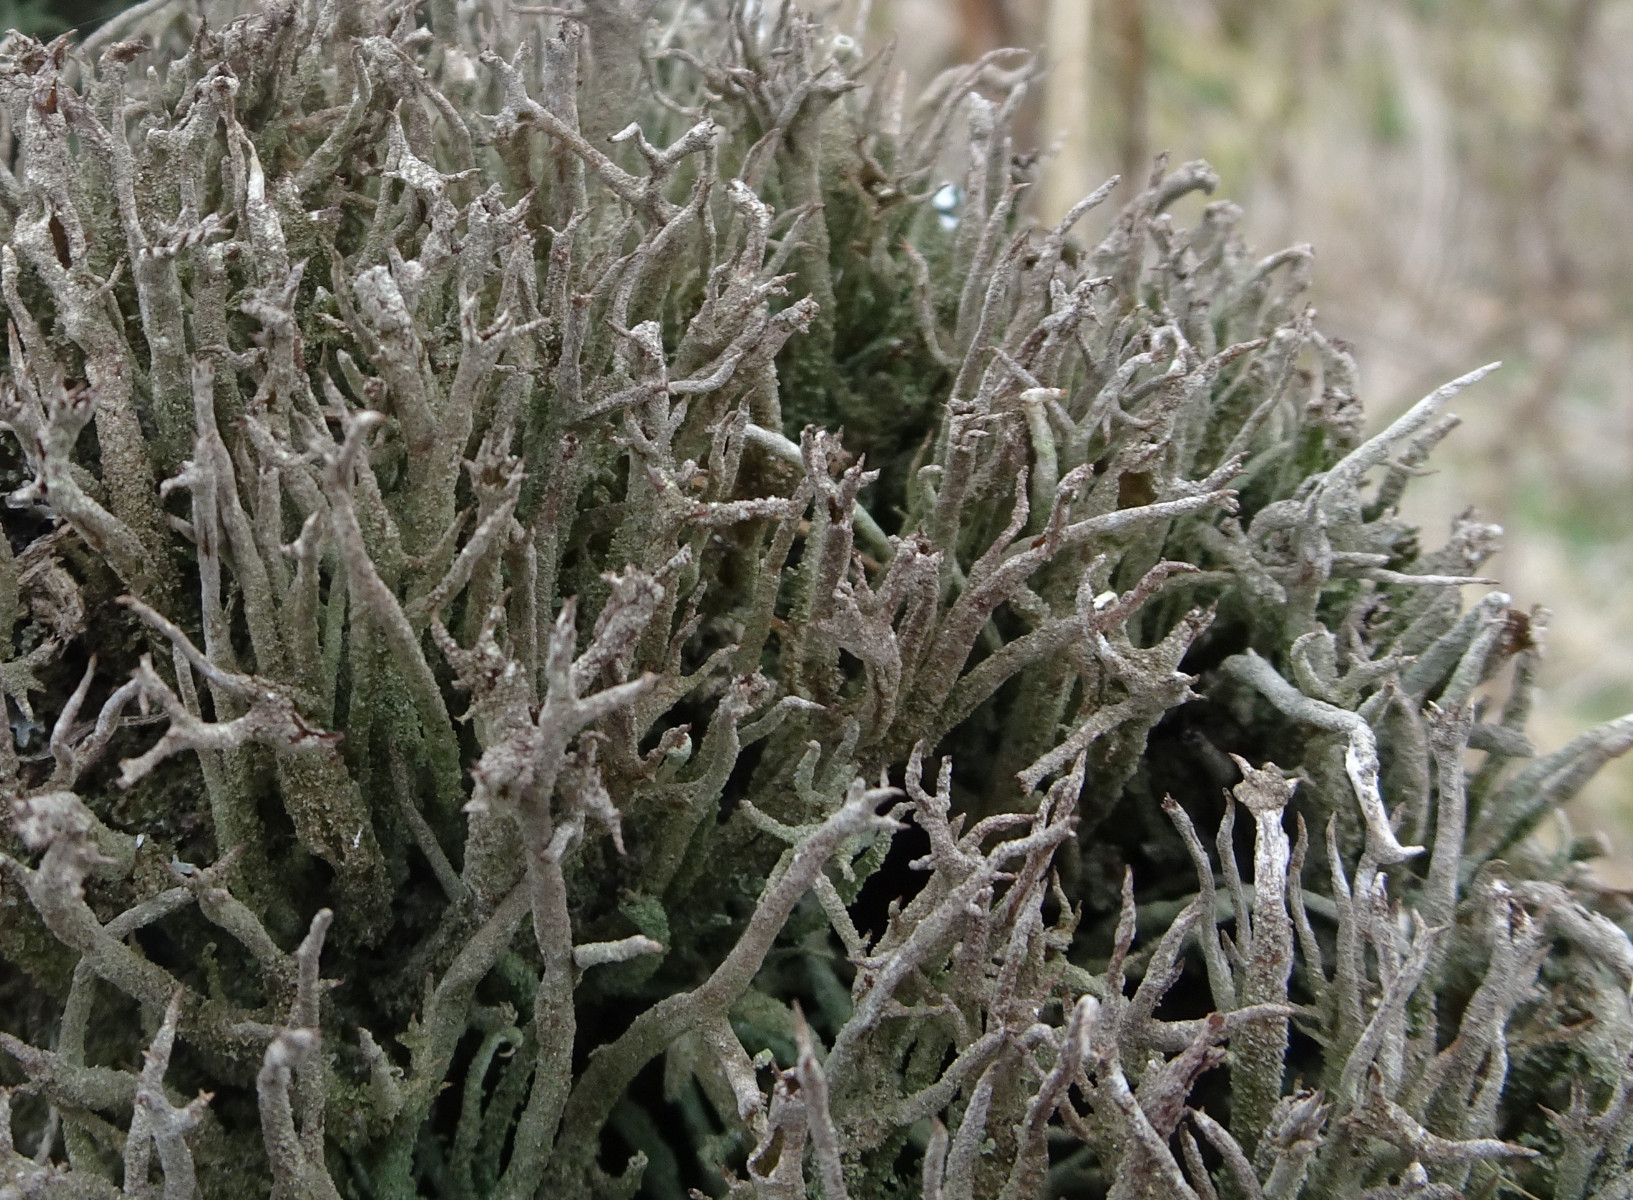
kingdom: Fungi
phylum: Ascomycota
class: Lecanoromycetes
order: Lecanorales
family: Cladoniaceae
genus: Cladonia
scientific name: Cladonia glauca
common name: grågrøn bægerlav
